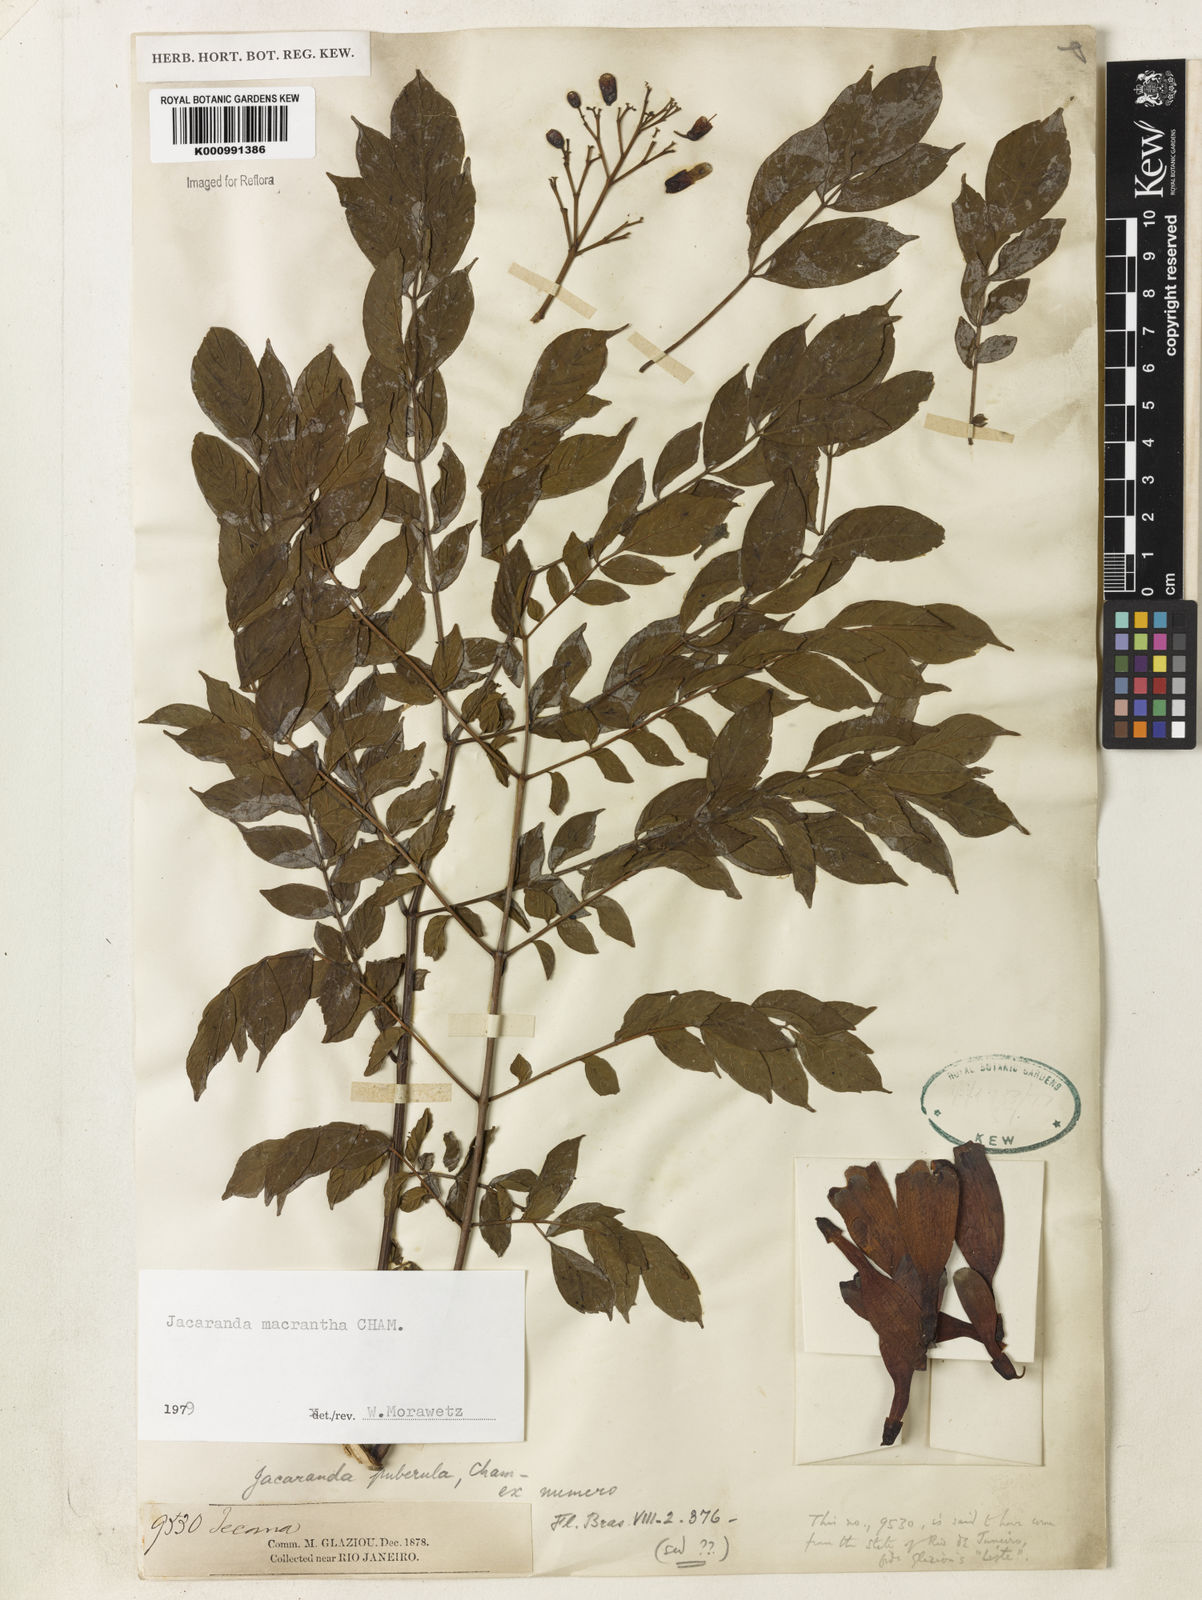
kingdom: Plantae
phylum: Tracheophyta
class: Magnoliopsida
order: Lamiales
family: Bignoniaceae
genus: Jacaranda
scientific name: Jacaranda micrantha
